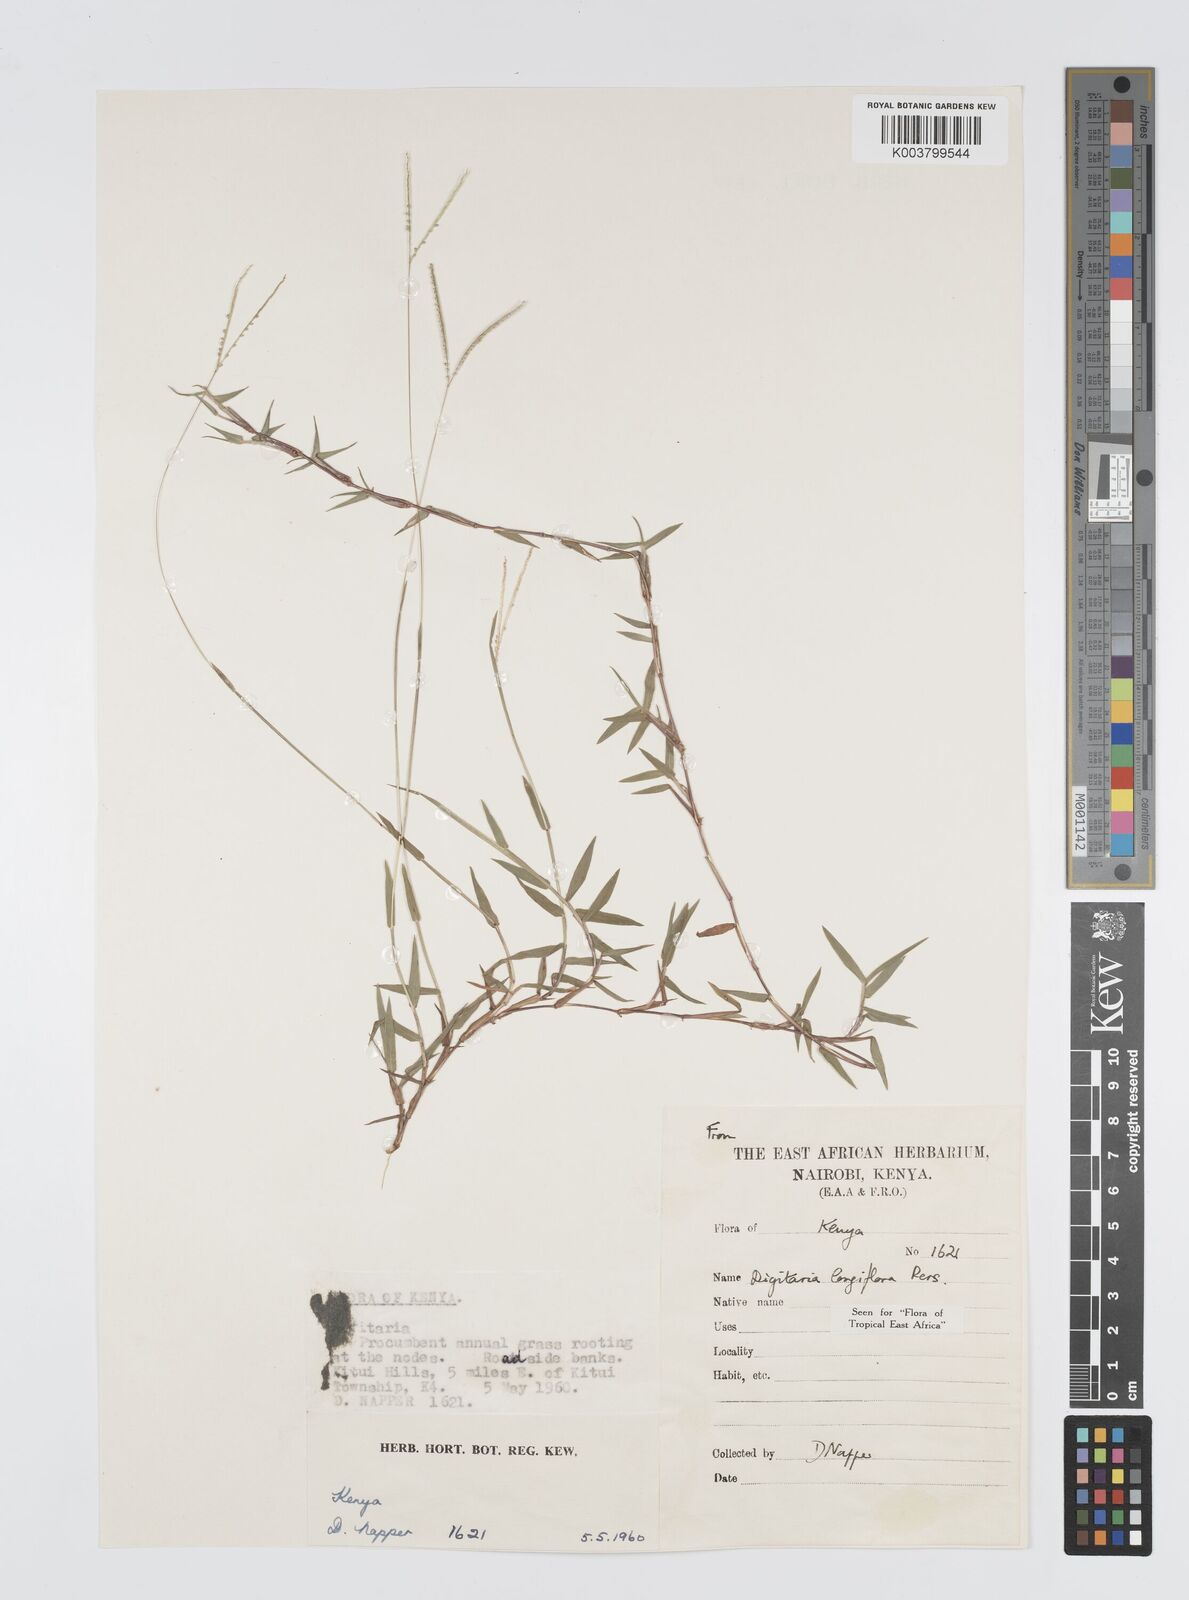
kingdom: Plantae
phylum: Tracheophyta
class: Liliopsida
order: Poales
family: Poaceae
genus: Digitaria
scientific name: Digitaria longiflora
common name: Wire crabgrass
